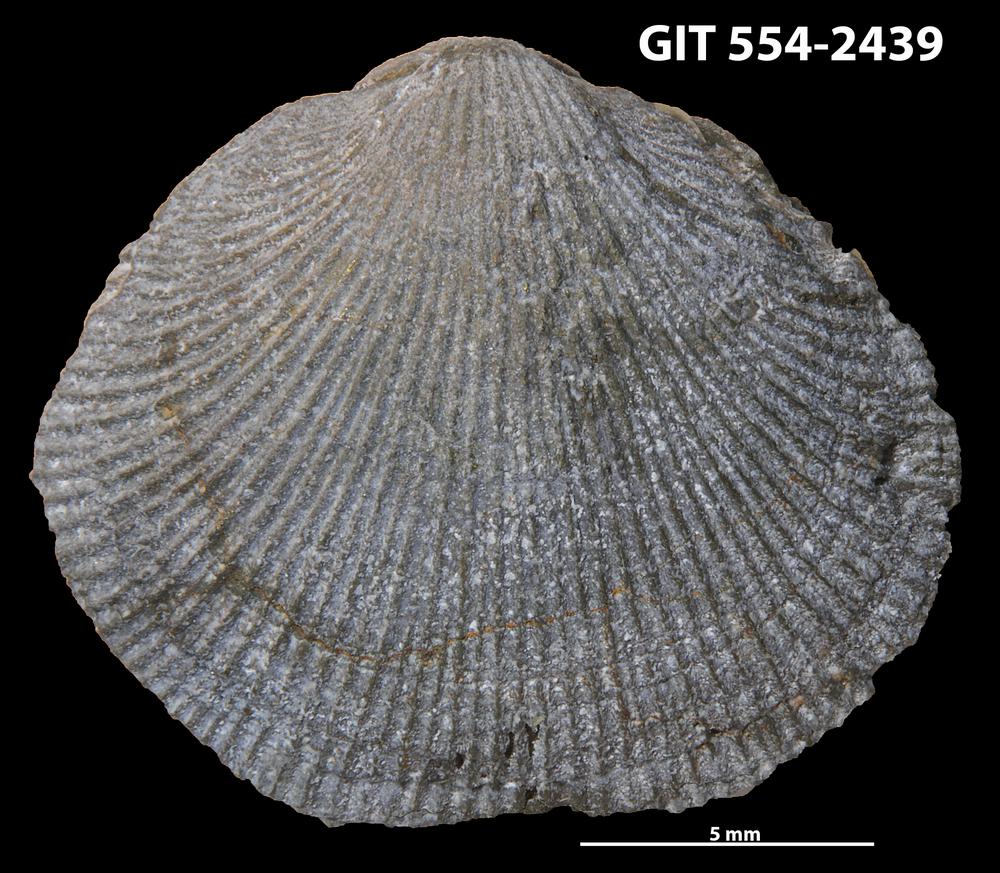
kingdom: Animalia
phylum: Brachiopoda
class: Rhynchonellata
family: Rhipidomellidae
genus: Mendacella
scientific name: Mendacella Rhipidomelloides phaseola
